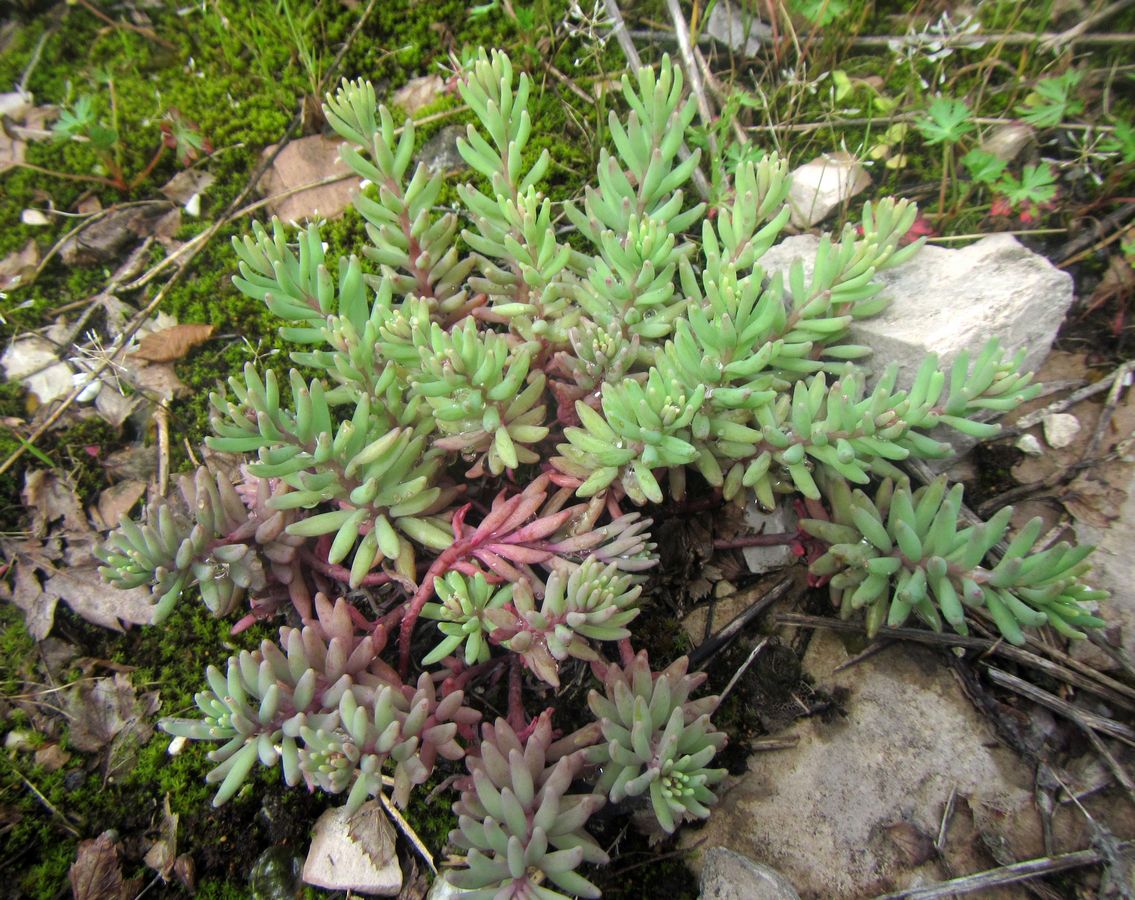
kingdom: Plantae
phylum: Tracheophyta
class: Magnoliopsida
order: Saxifragales
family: Crassulaceae
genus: Sedum
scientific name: Sedum pallidum
